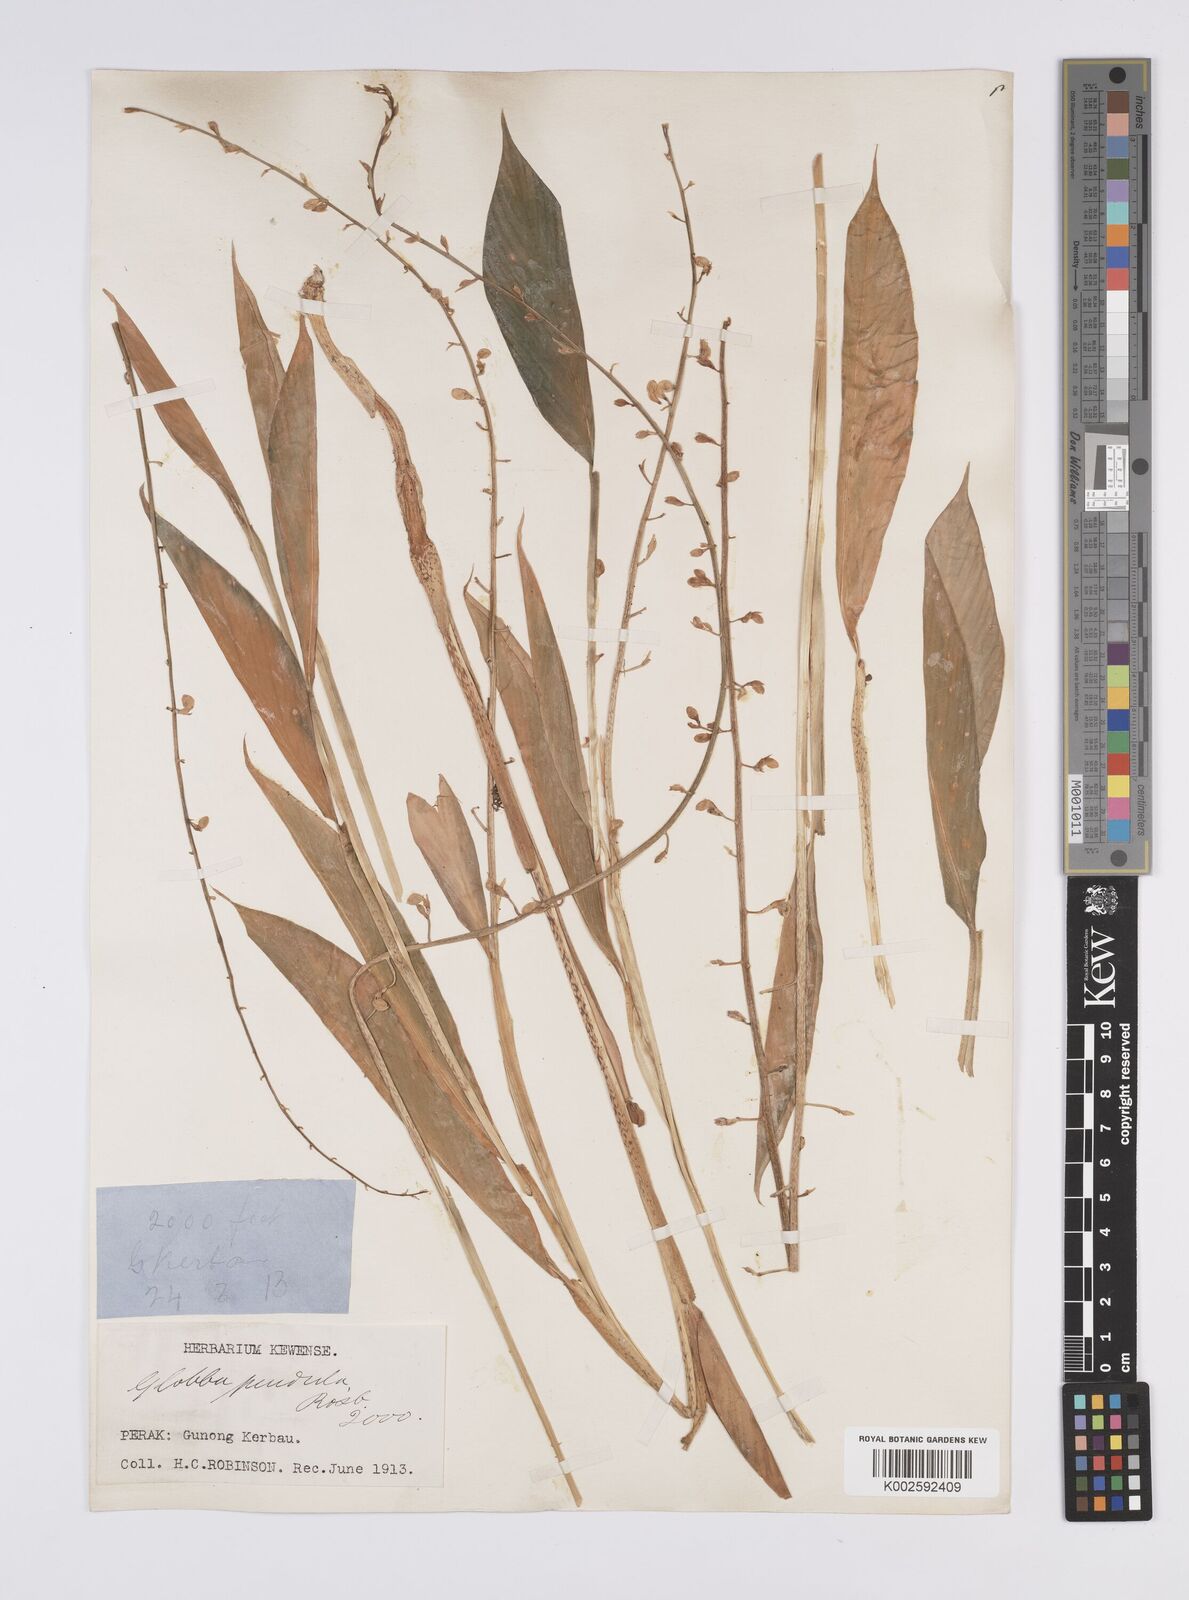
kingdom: Plantae
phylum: Tracheophyta
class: Liliopsida
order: Zingiberales
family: Zingiberaceae
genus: Globba
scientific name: Globba pendula
